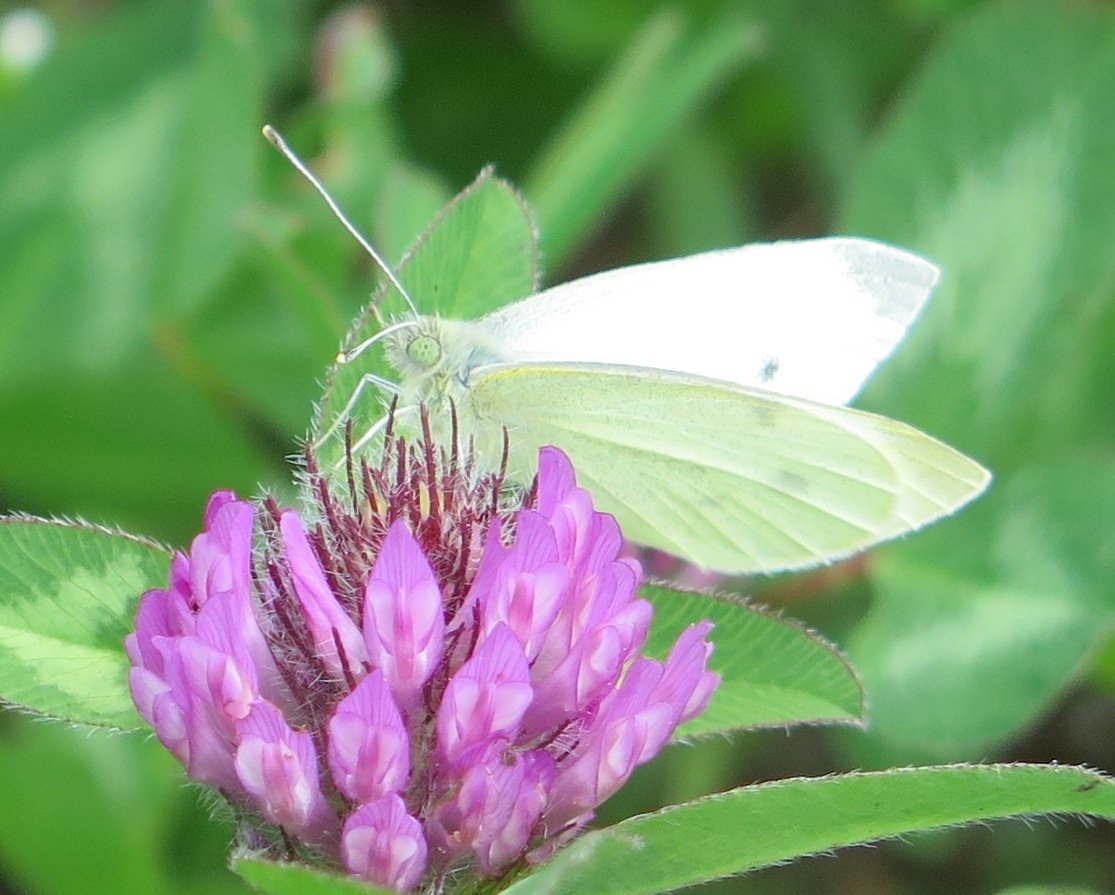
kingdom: Animalia
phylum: Arthropoda
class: Insecta
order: Lepidoptera
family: Pieridae
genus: Pieris
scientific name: Pieris rapae
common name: Cabbage White
